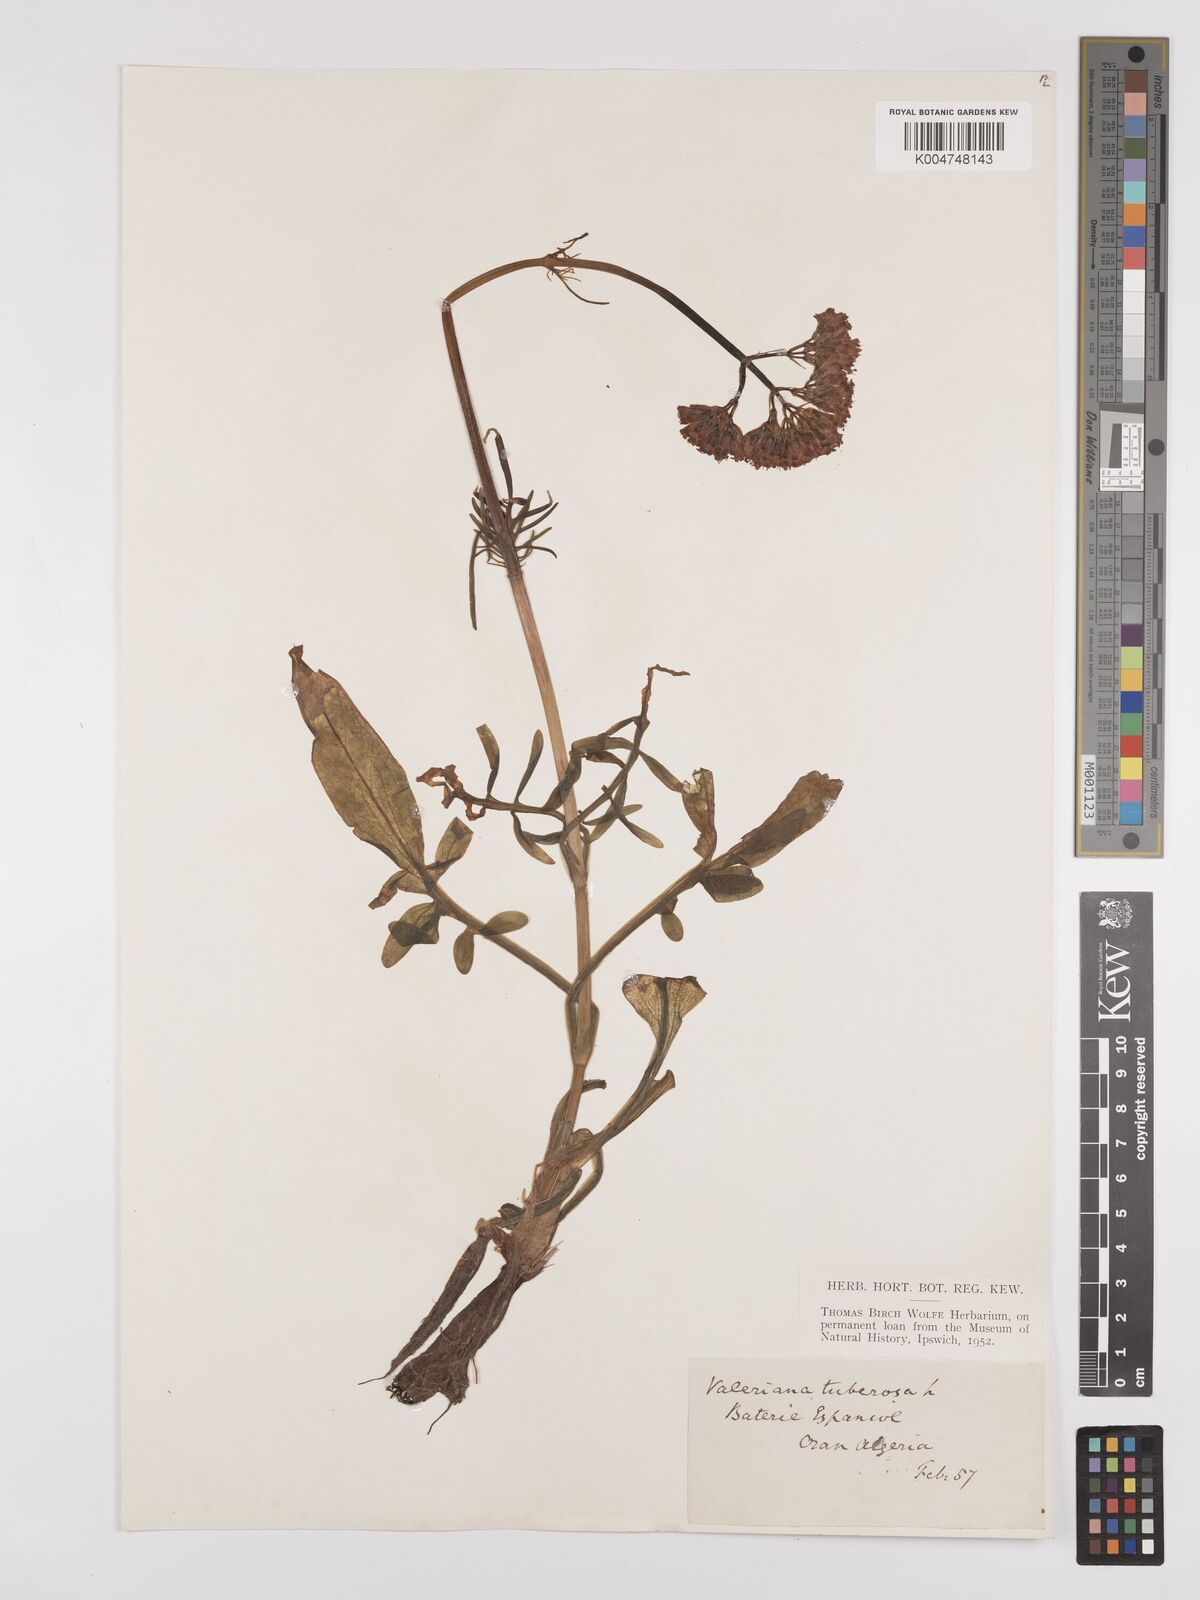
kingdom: Plantae
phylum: Tracheophyta
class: Magnoliopsida
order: Dipsacales
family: Caprifoliaceae
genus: Valeriana
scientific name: Valeriana tuberosa
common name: Tuberous valerian
